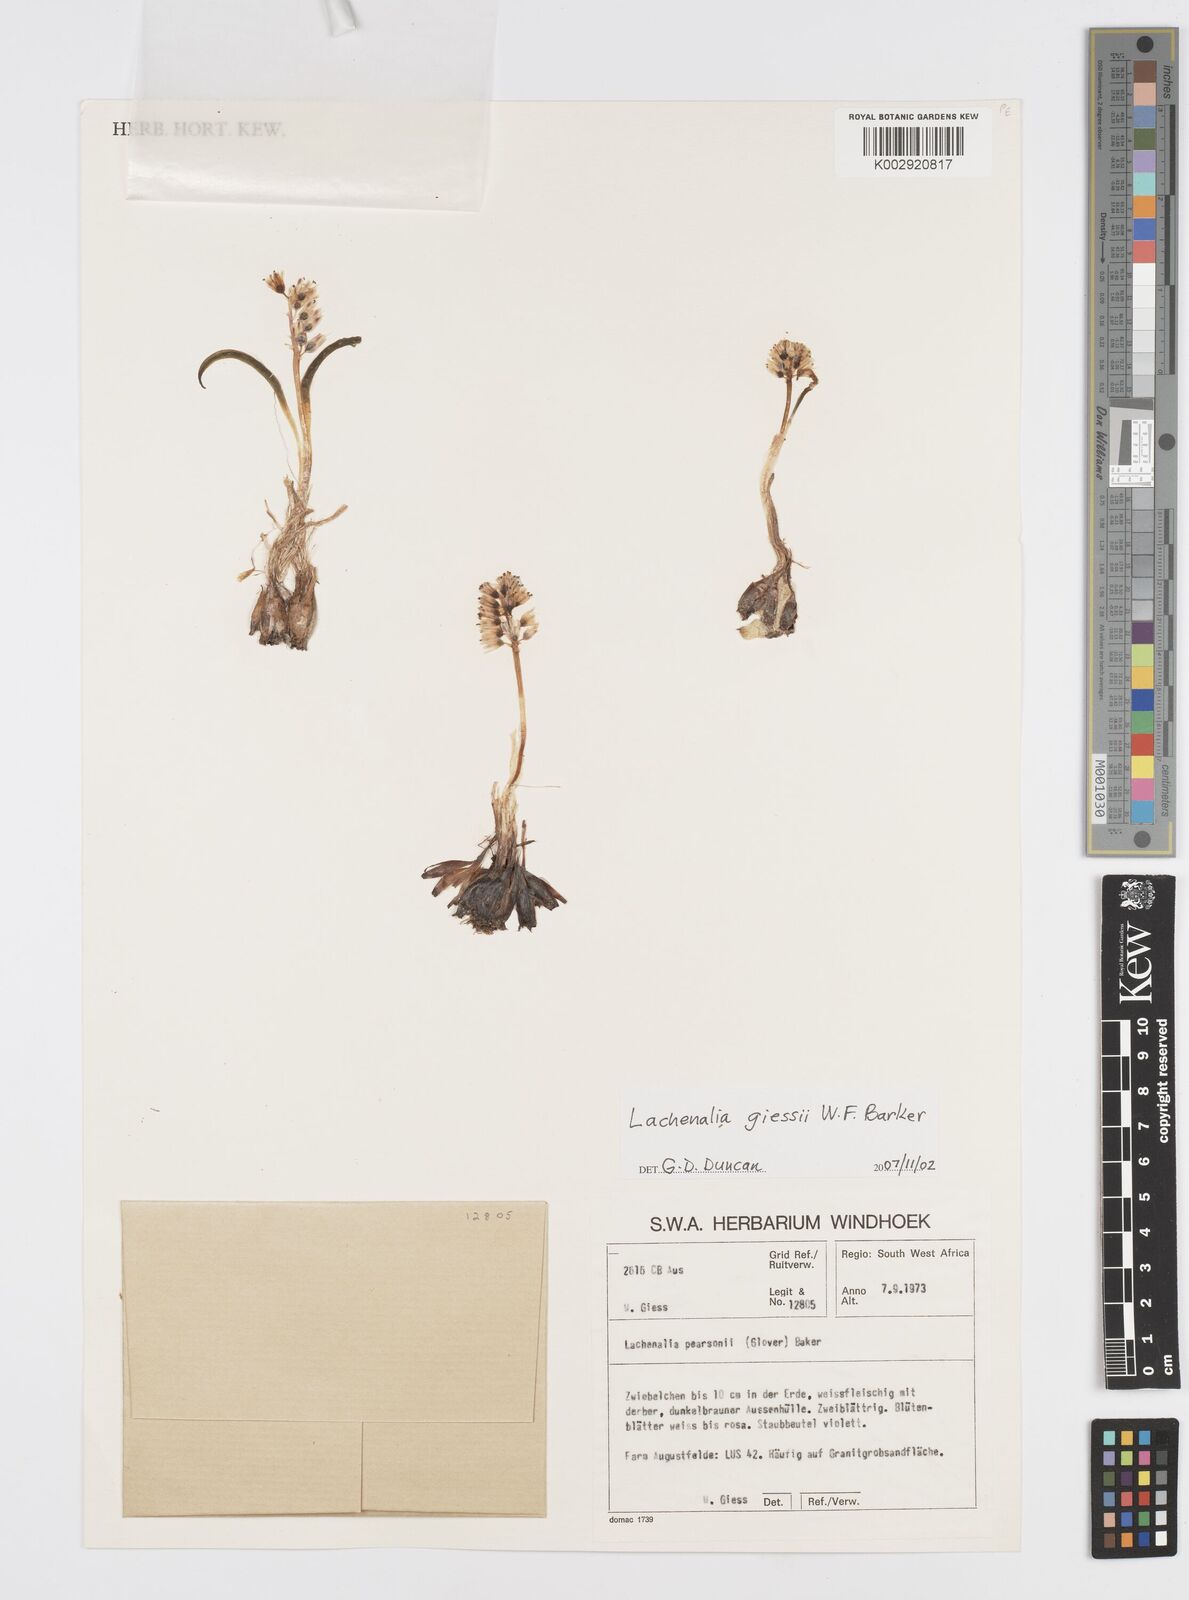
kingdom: Plantae
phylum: Tracheophyta
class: Liliopsida
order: Asparagales
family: Asparagaceae
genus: Lachenalia
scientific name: Lachenalia giessii
